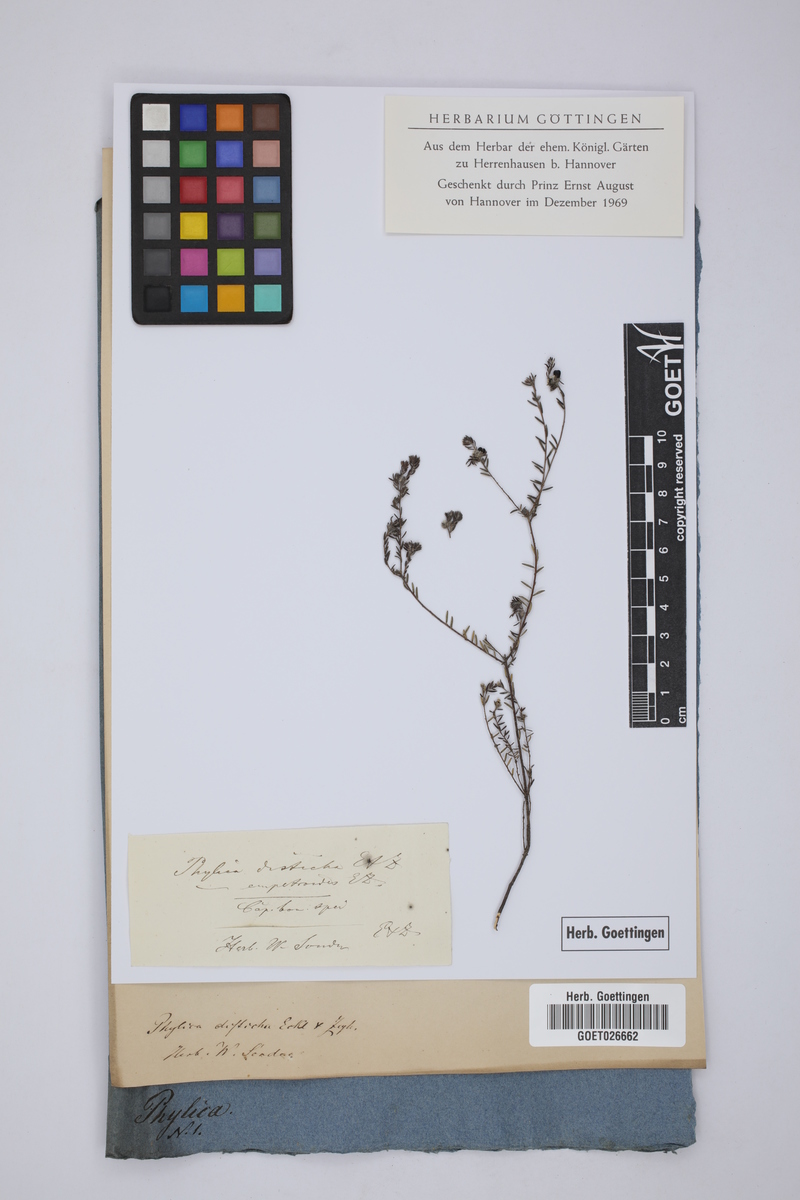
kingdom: Plantae
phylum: Tracheophyta
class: Magnoliopsida
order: Rosales
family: Rhamnaceae
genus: Phylica
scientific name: Phylica disticha
